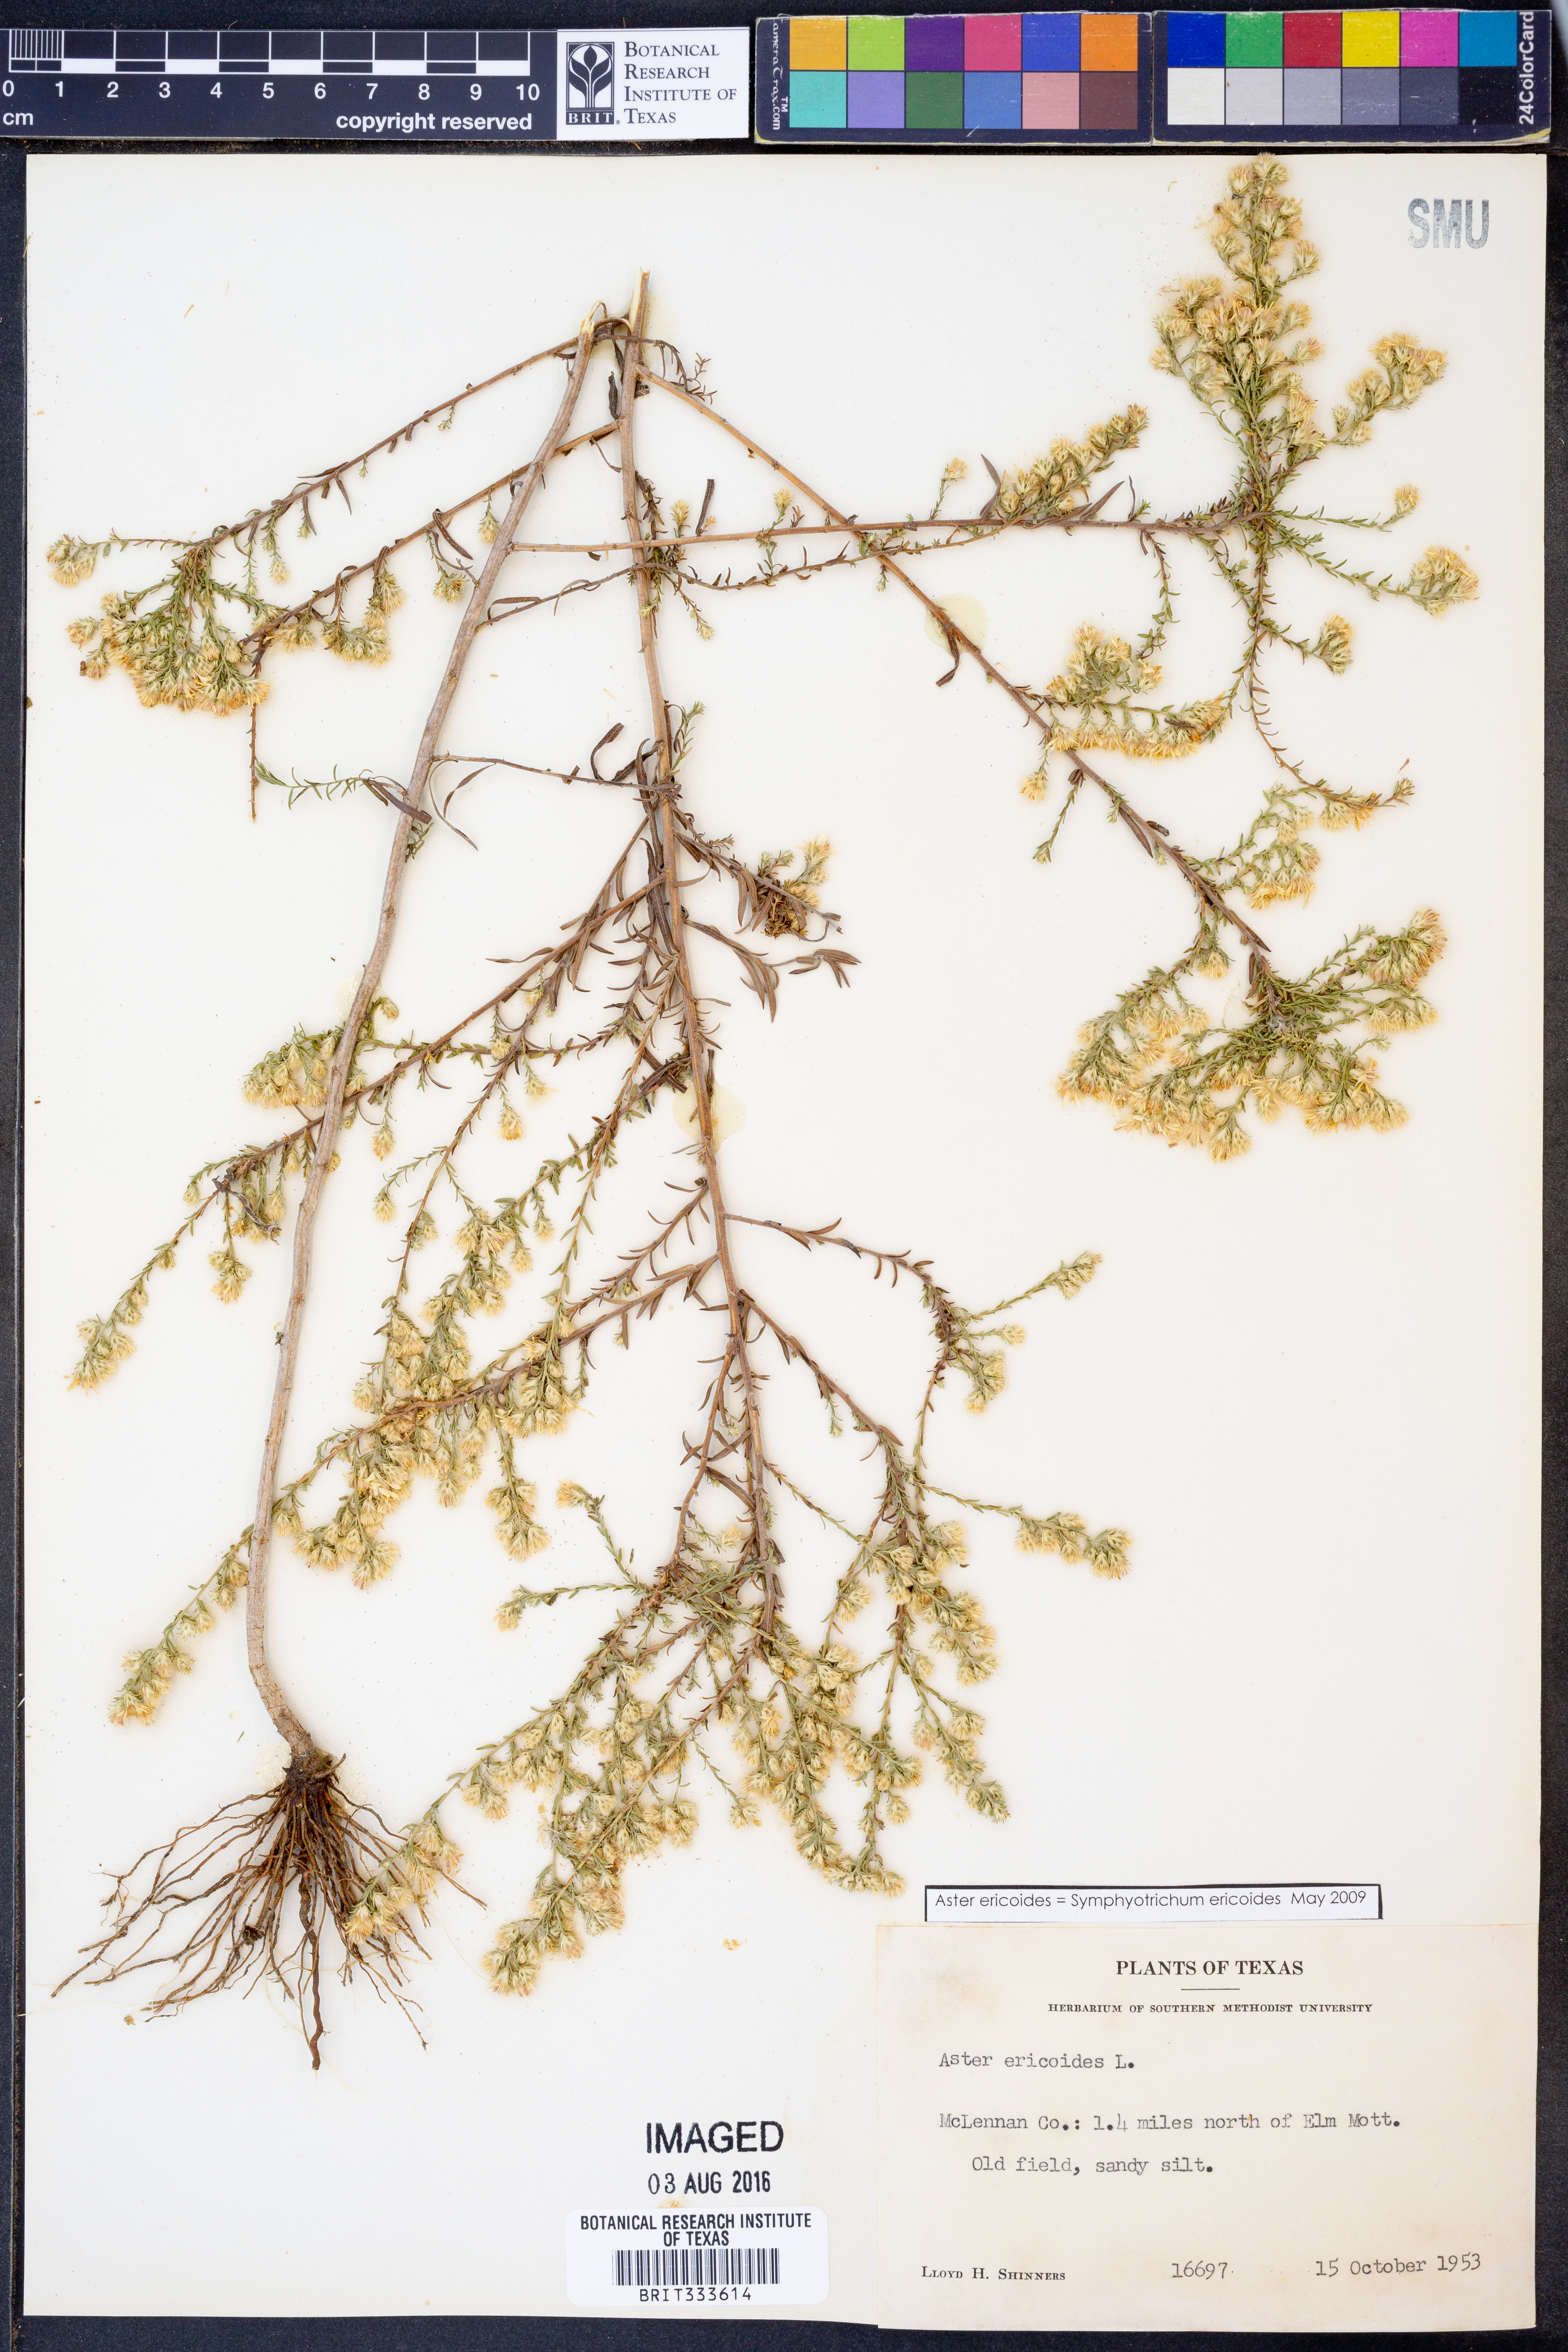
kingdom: Plantae
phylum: Tracheophyta
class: Magnoliopsida
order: Asterales
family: Asteraceae
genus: Symphyotrichum
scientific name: Symphyotrichum ericoides
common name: Heath aster
